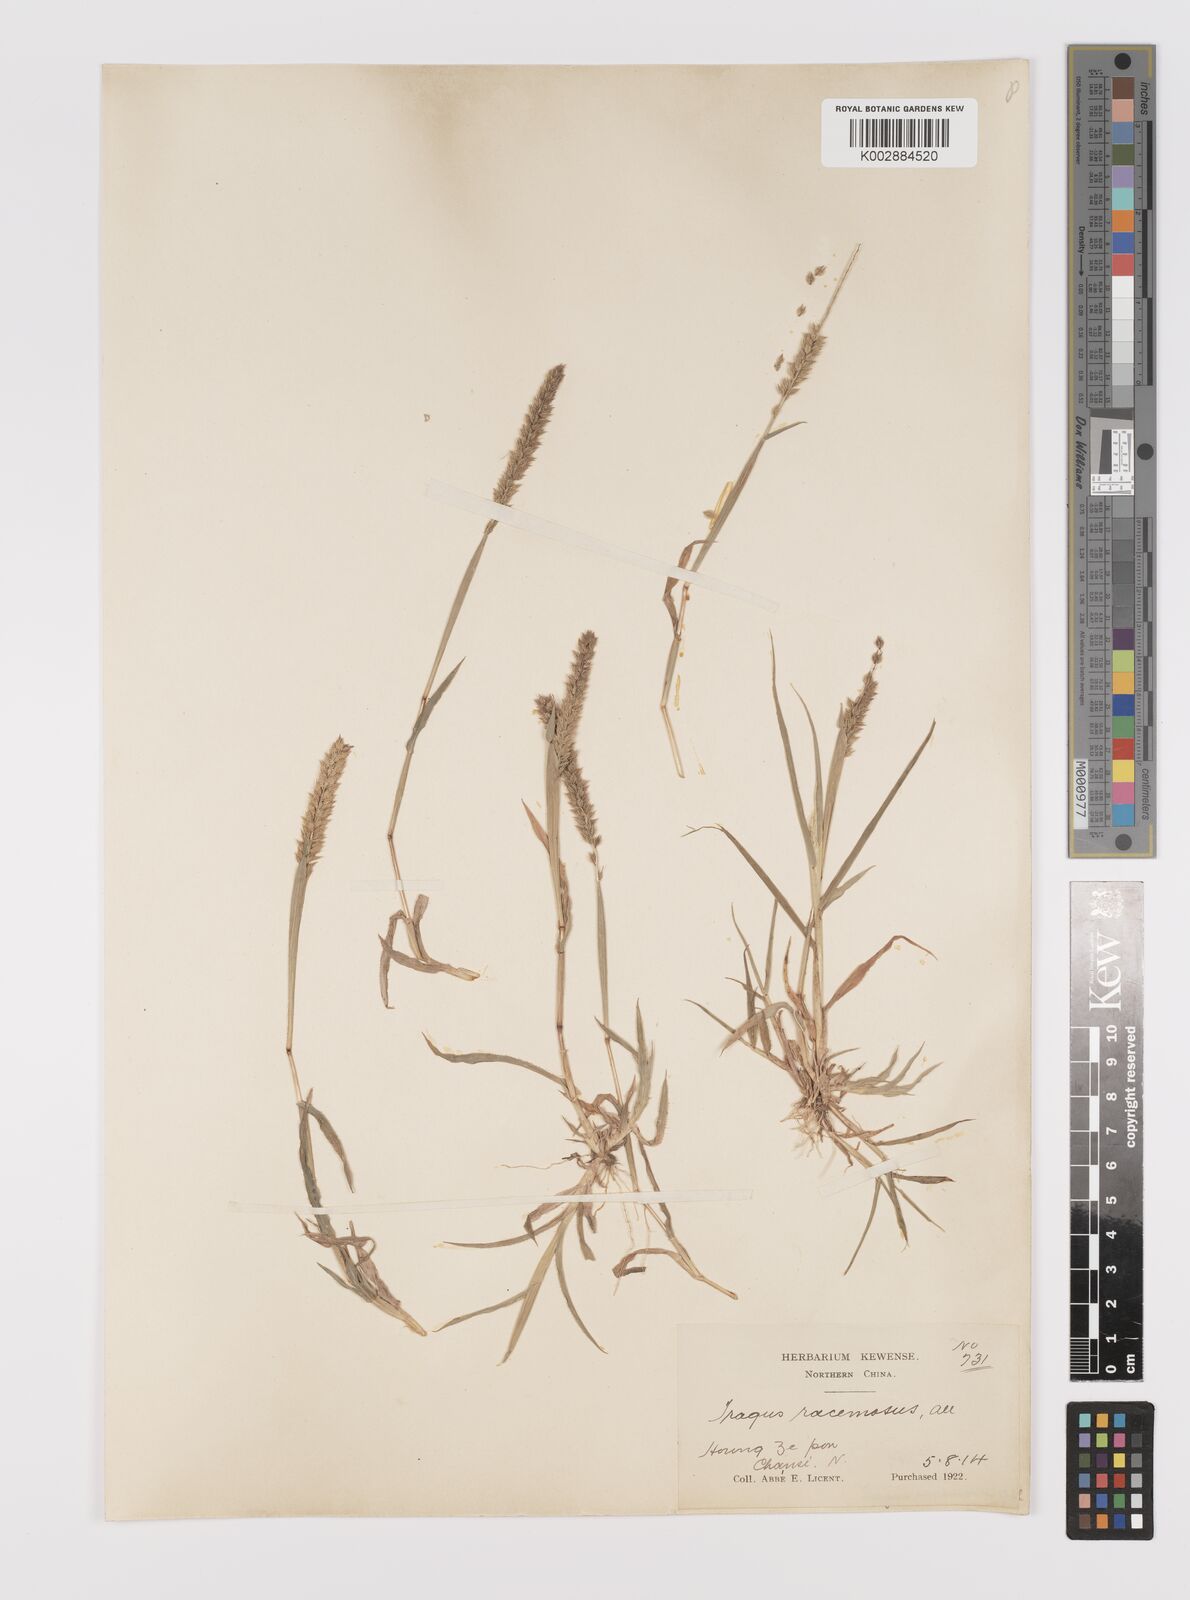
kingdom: Plantae
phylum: Tracheophyta
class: Liliopsida
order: Poales
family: Poaceae
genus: Tragus
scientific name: Tragus mongolorum
